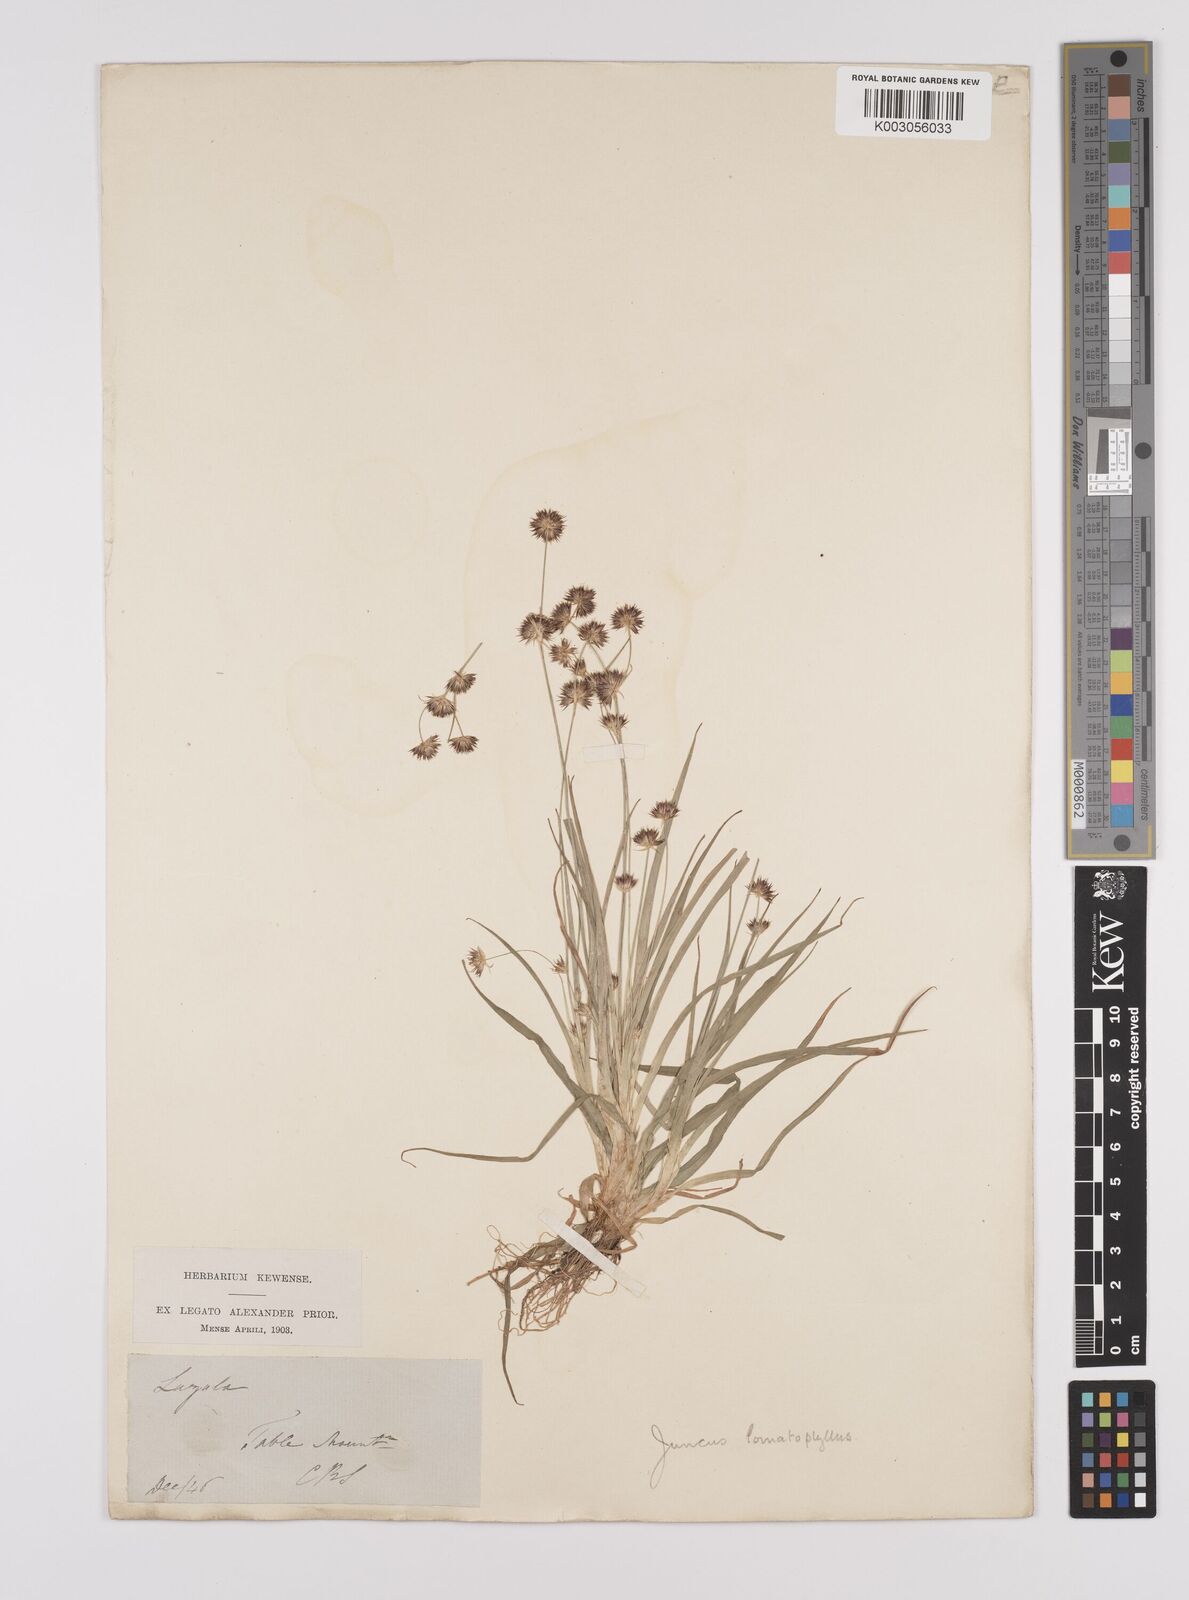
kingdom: Plantae
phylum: Tracheophyta
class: Liliopsida
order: Poales
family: Juncaceae
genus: Juncus
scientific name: Juncus lomatophyllus
